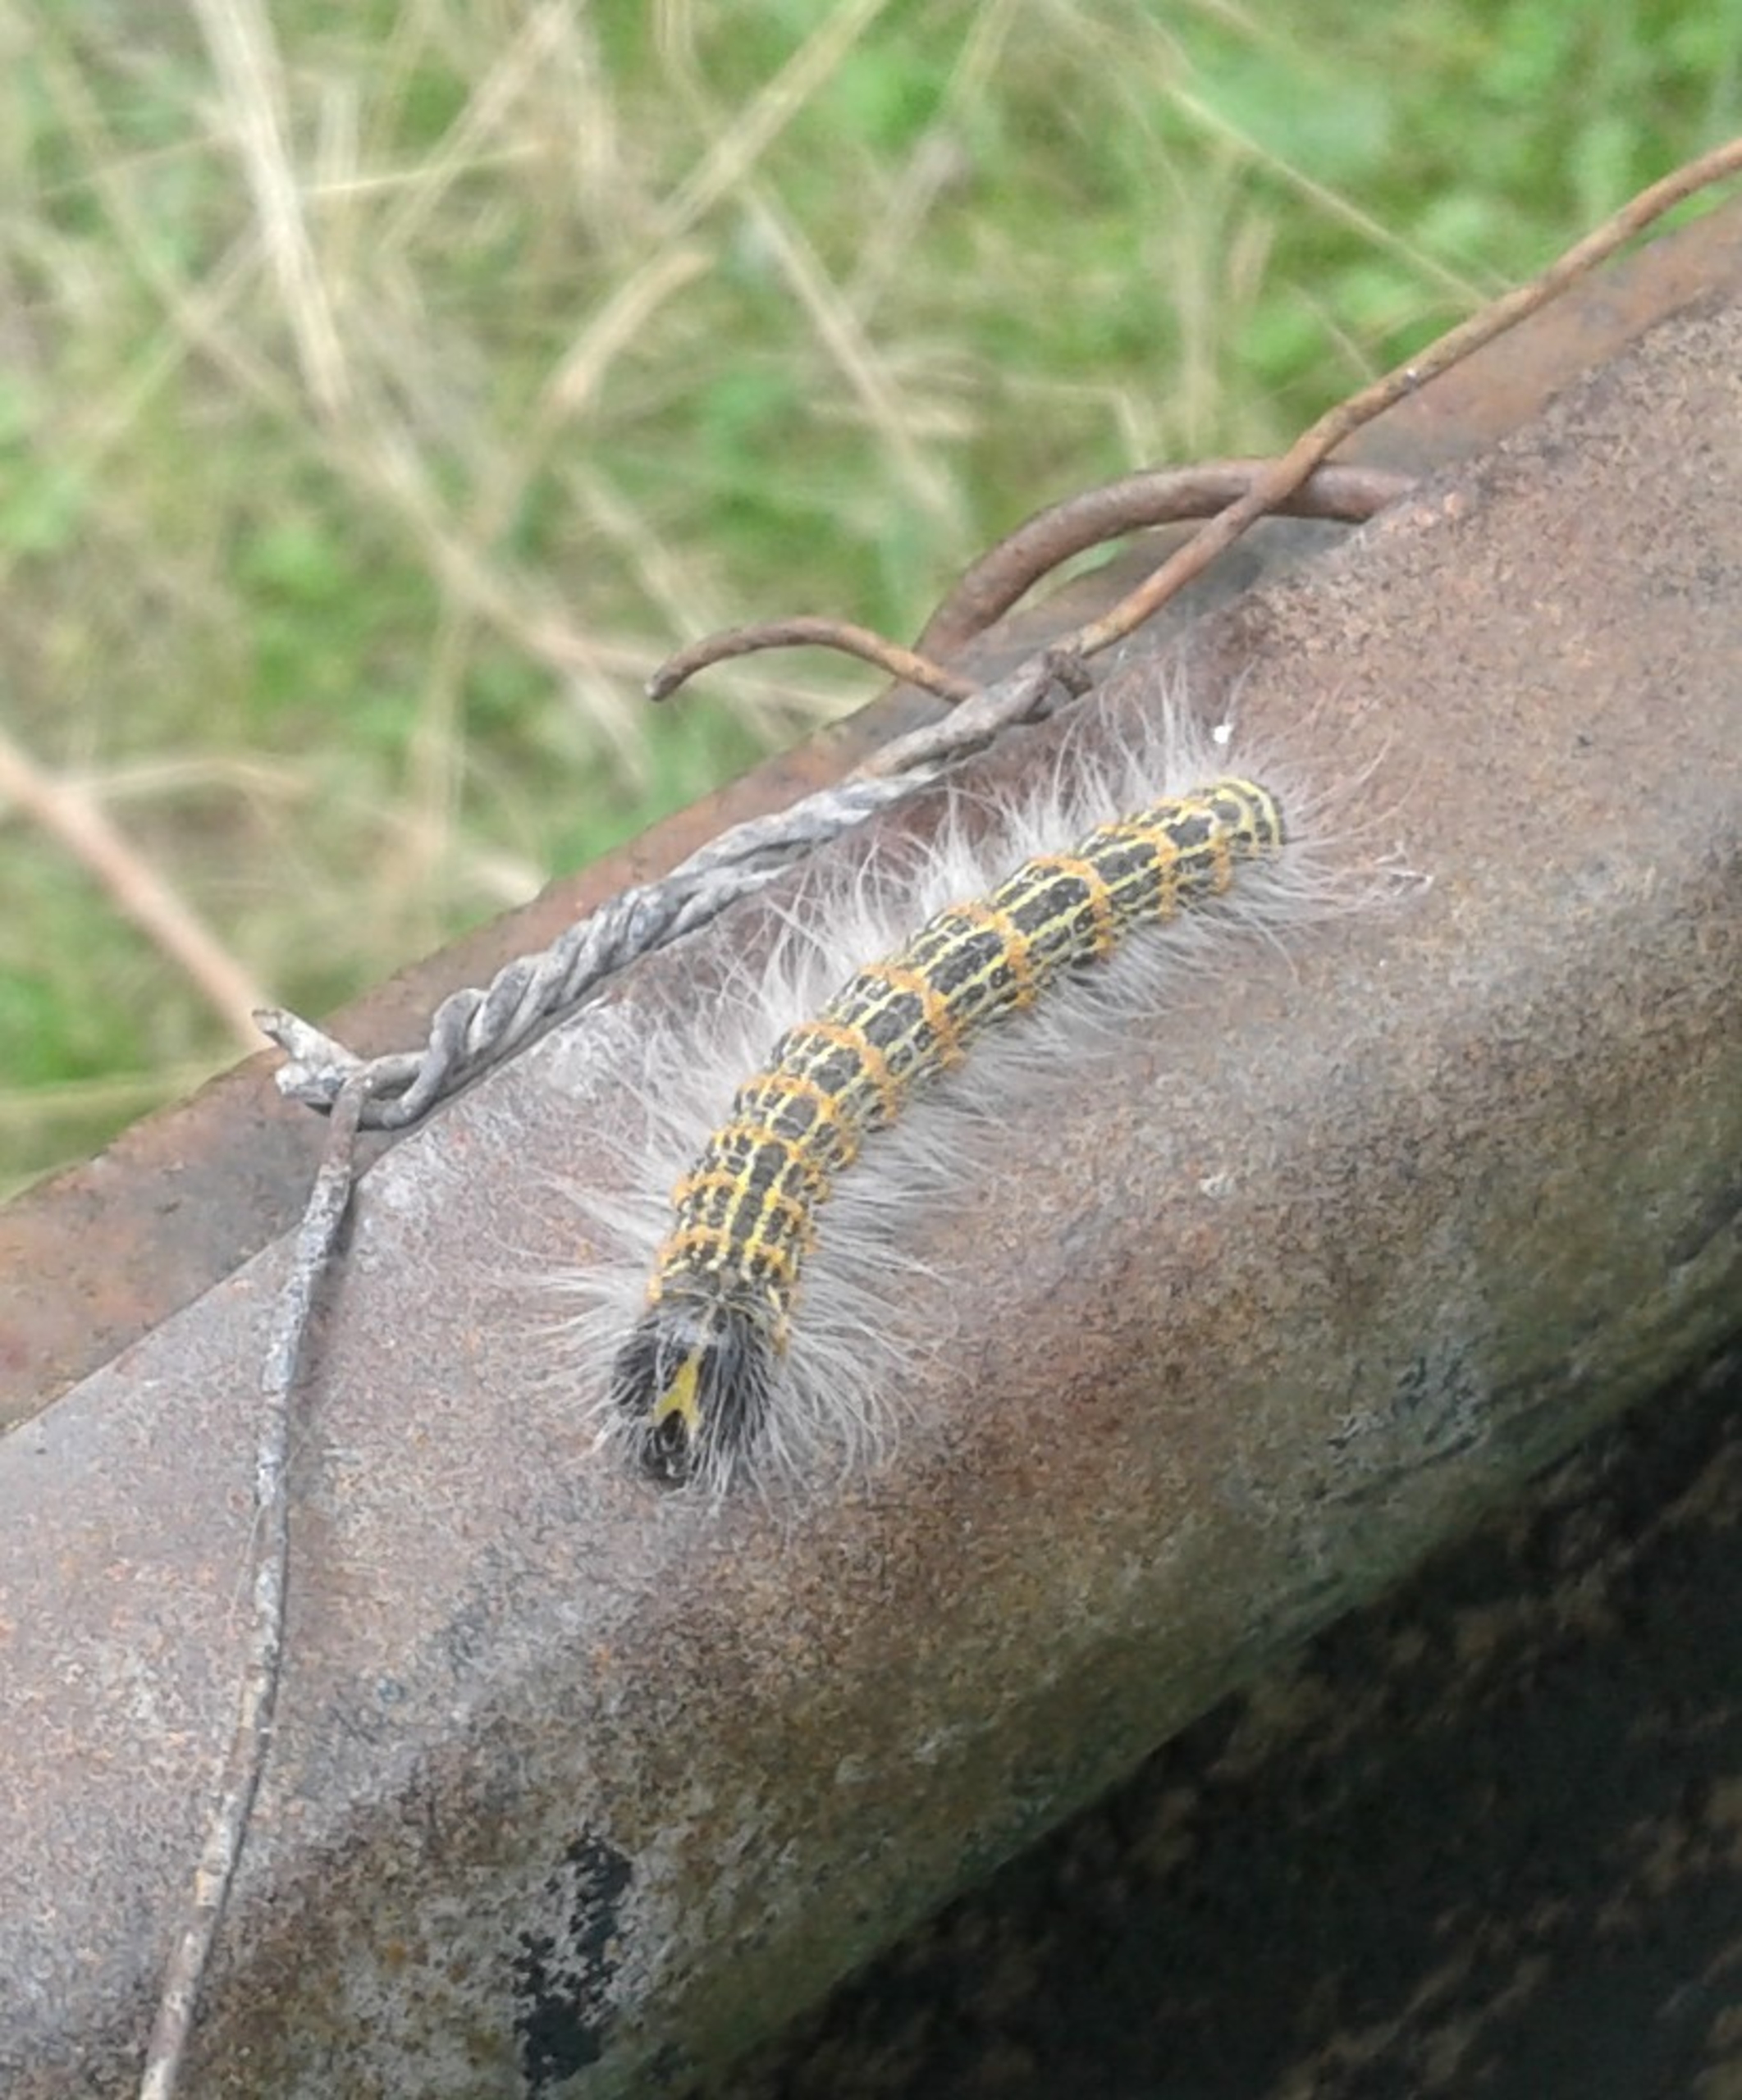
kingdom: Animalia
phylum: Arthropoda
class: Insecta
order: Lepidoptera
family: Notodontidae
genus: Phalera
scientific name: Phalera bucephala
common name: Måneplet
